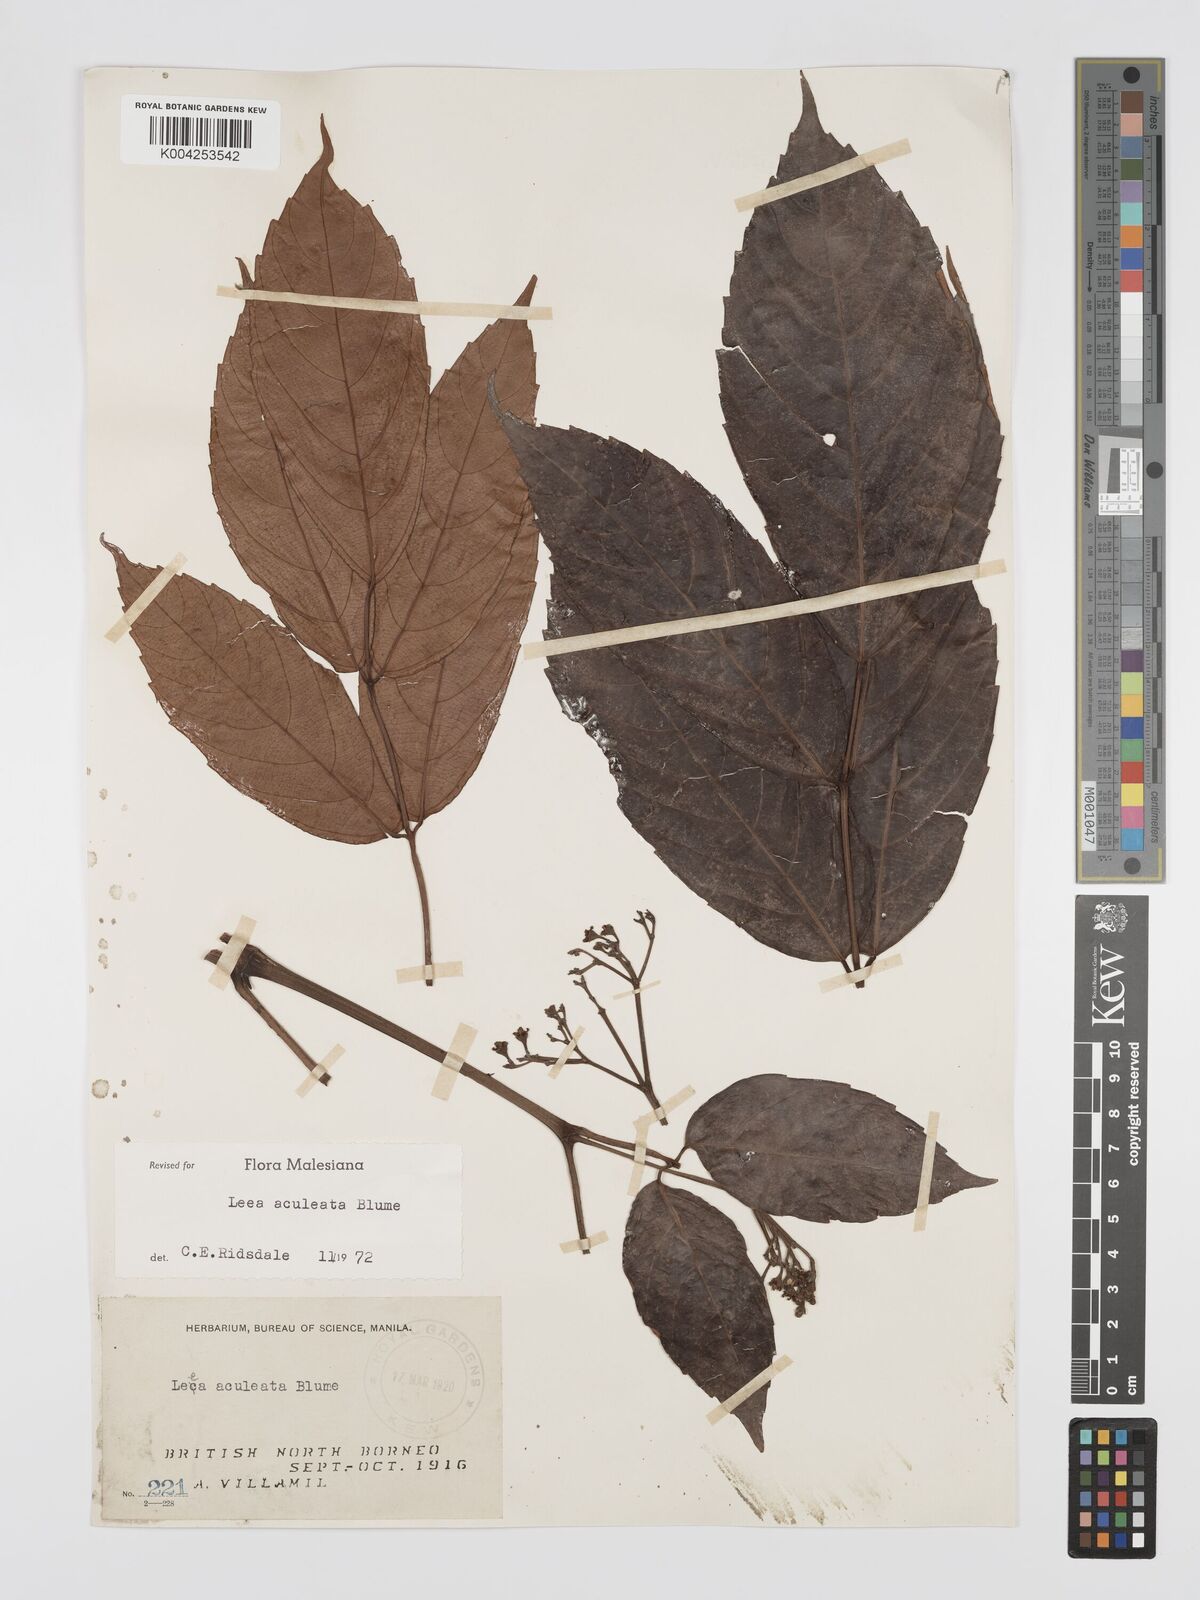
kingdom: Plantae
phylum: Tracheophyta
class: Magnoliopsida
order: Vitales
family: Vitaceae
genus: Leea
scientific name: Leea aculeata
